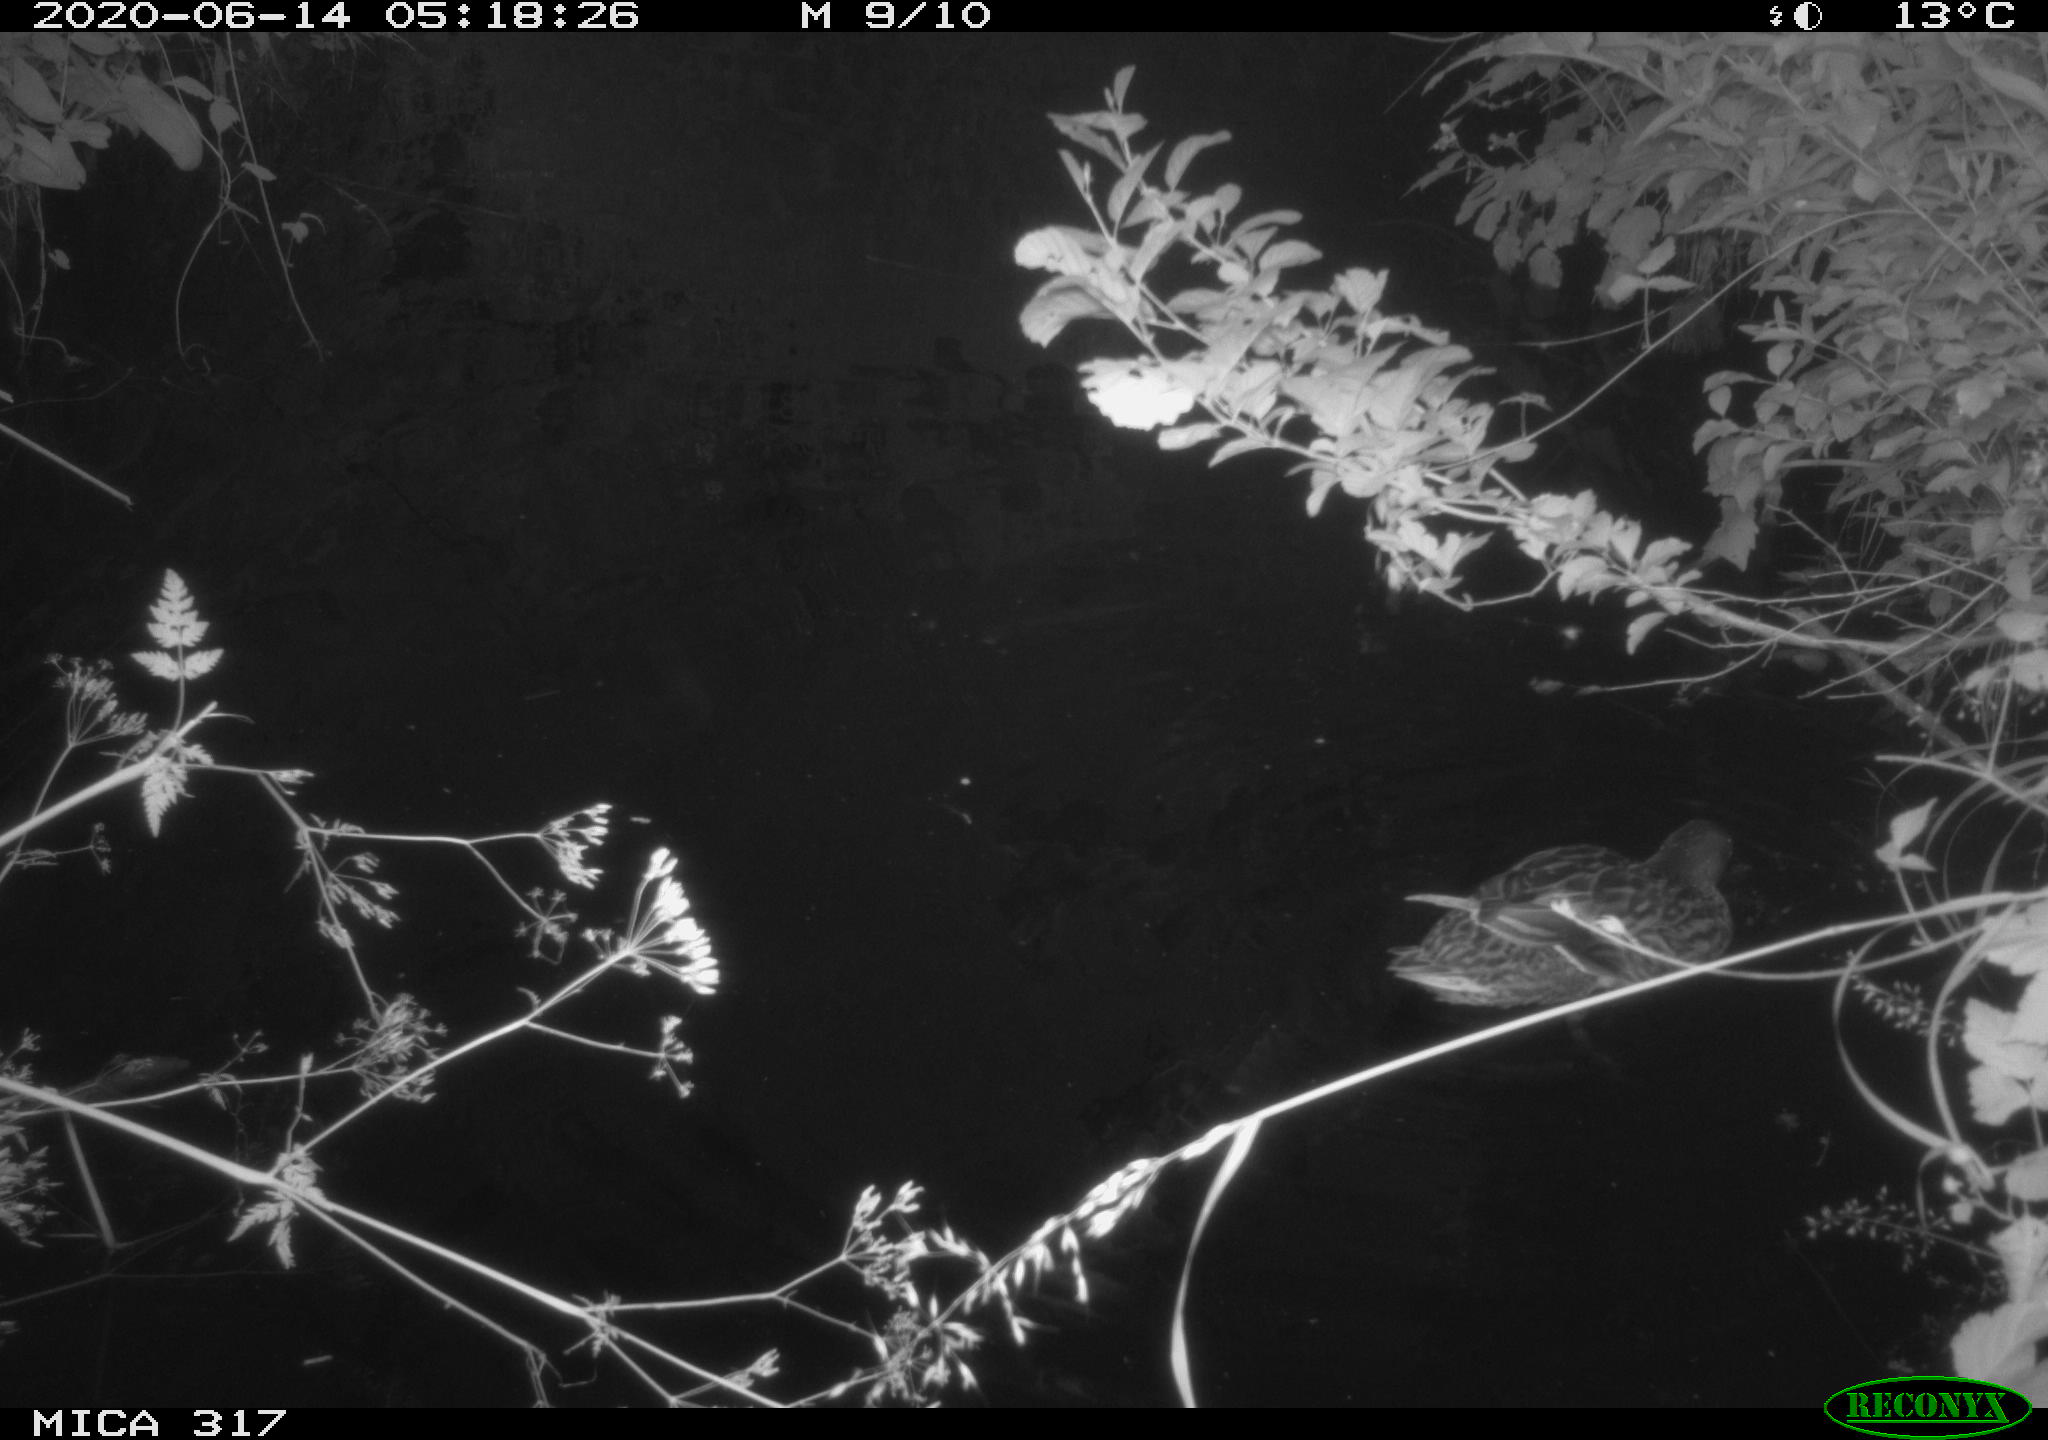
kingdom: Animalia
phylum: Chordata
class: Aves
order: Anseriformes
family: Anatidae
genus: Anas
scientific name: Anas platyrhynchos
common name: Mallard
